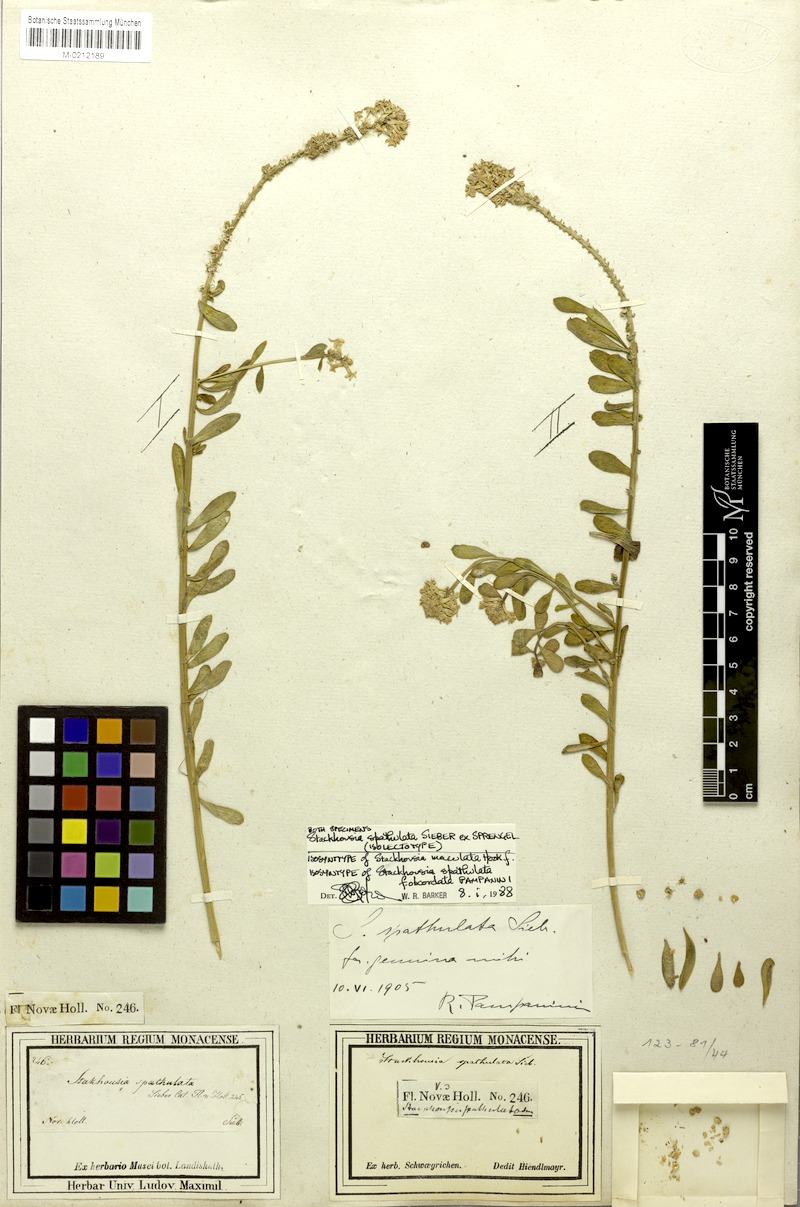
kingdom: Plantae
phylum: Tracheophyta
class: Magnoliopsida
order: Celastrales
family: Celastraceae
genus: Stackhousia
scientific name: Stackhousia spathulata
